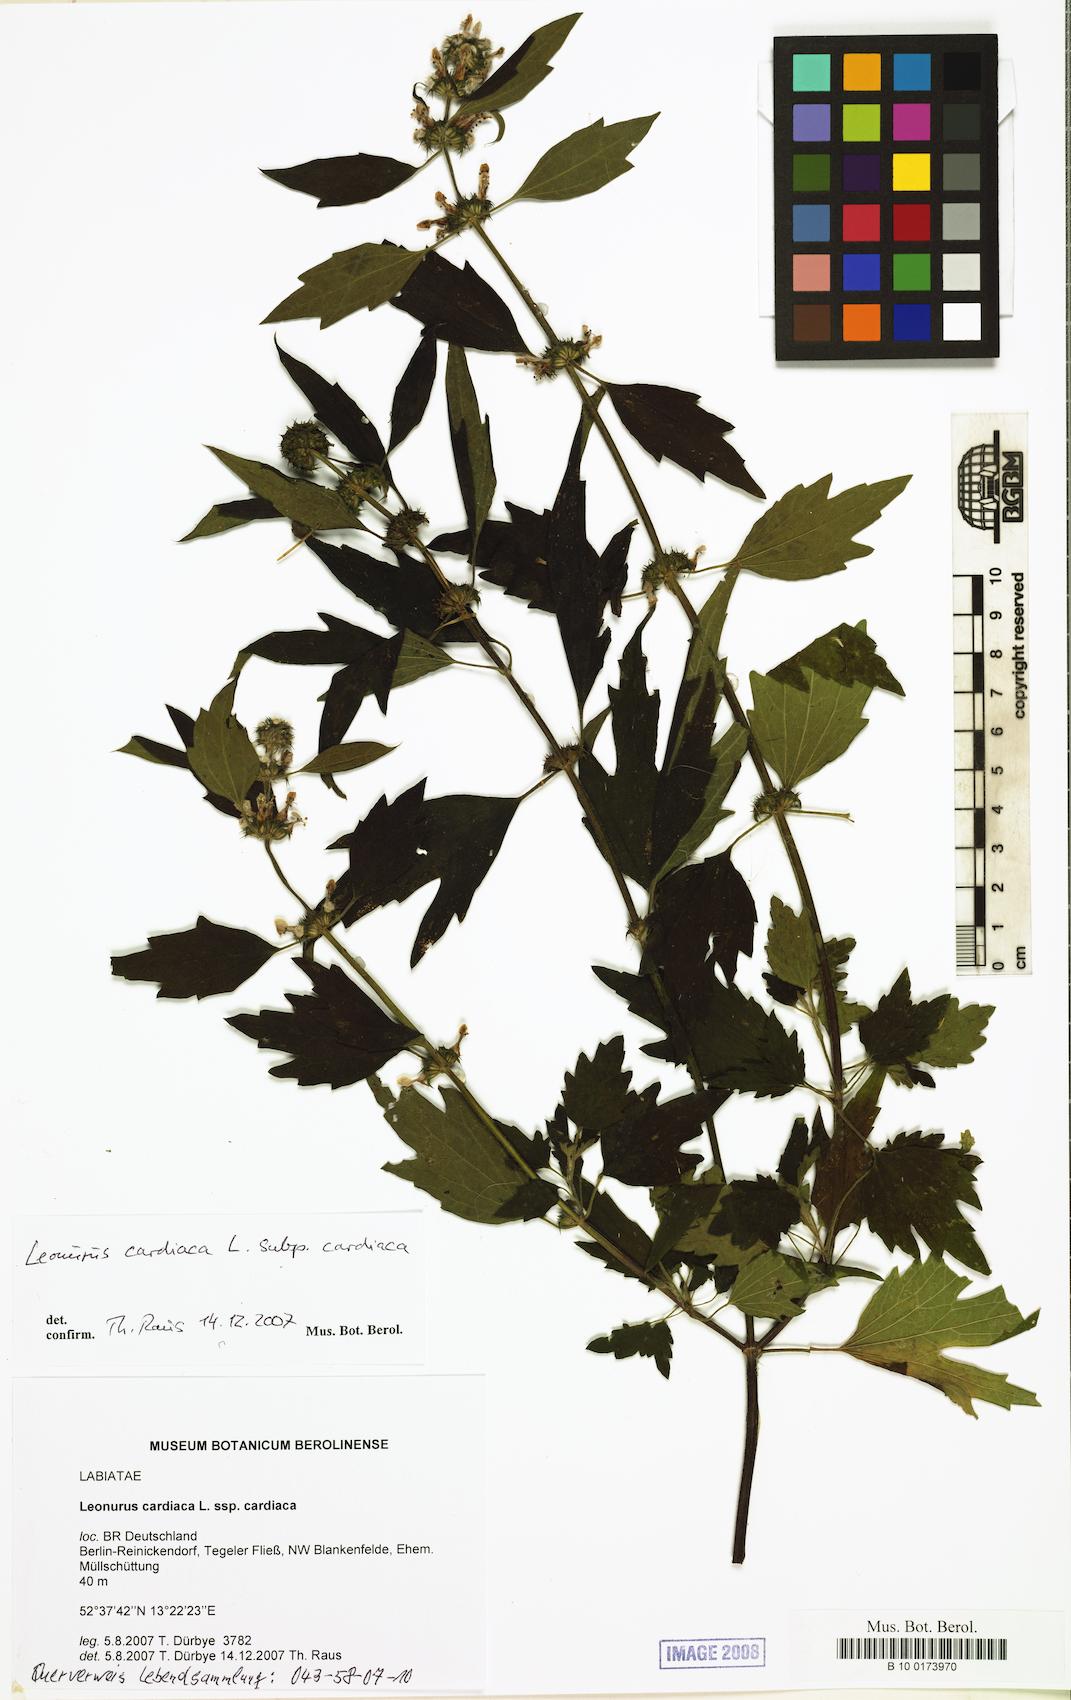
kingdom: Plantae
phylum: Tracheophyta
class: Magnoliopsida
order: Lamiales
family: Lamiaceae
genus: Leonurus
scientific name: Leonurus cardiaca
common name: Motherwort
